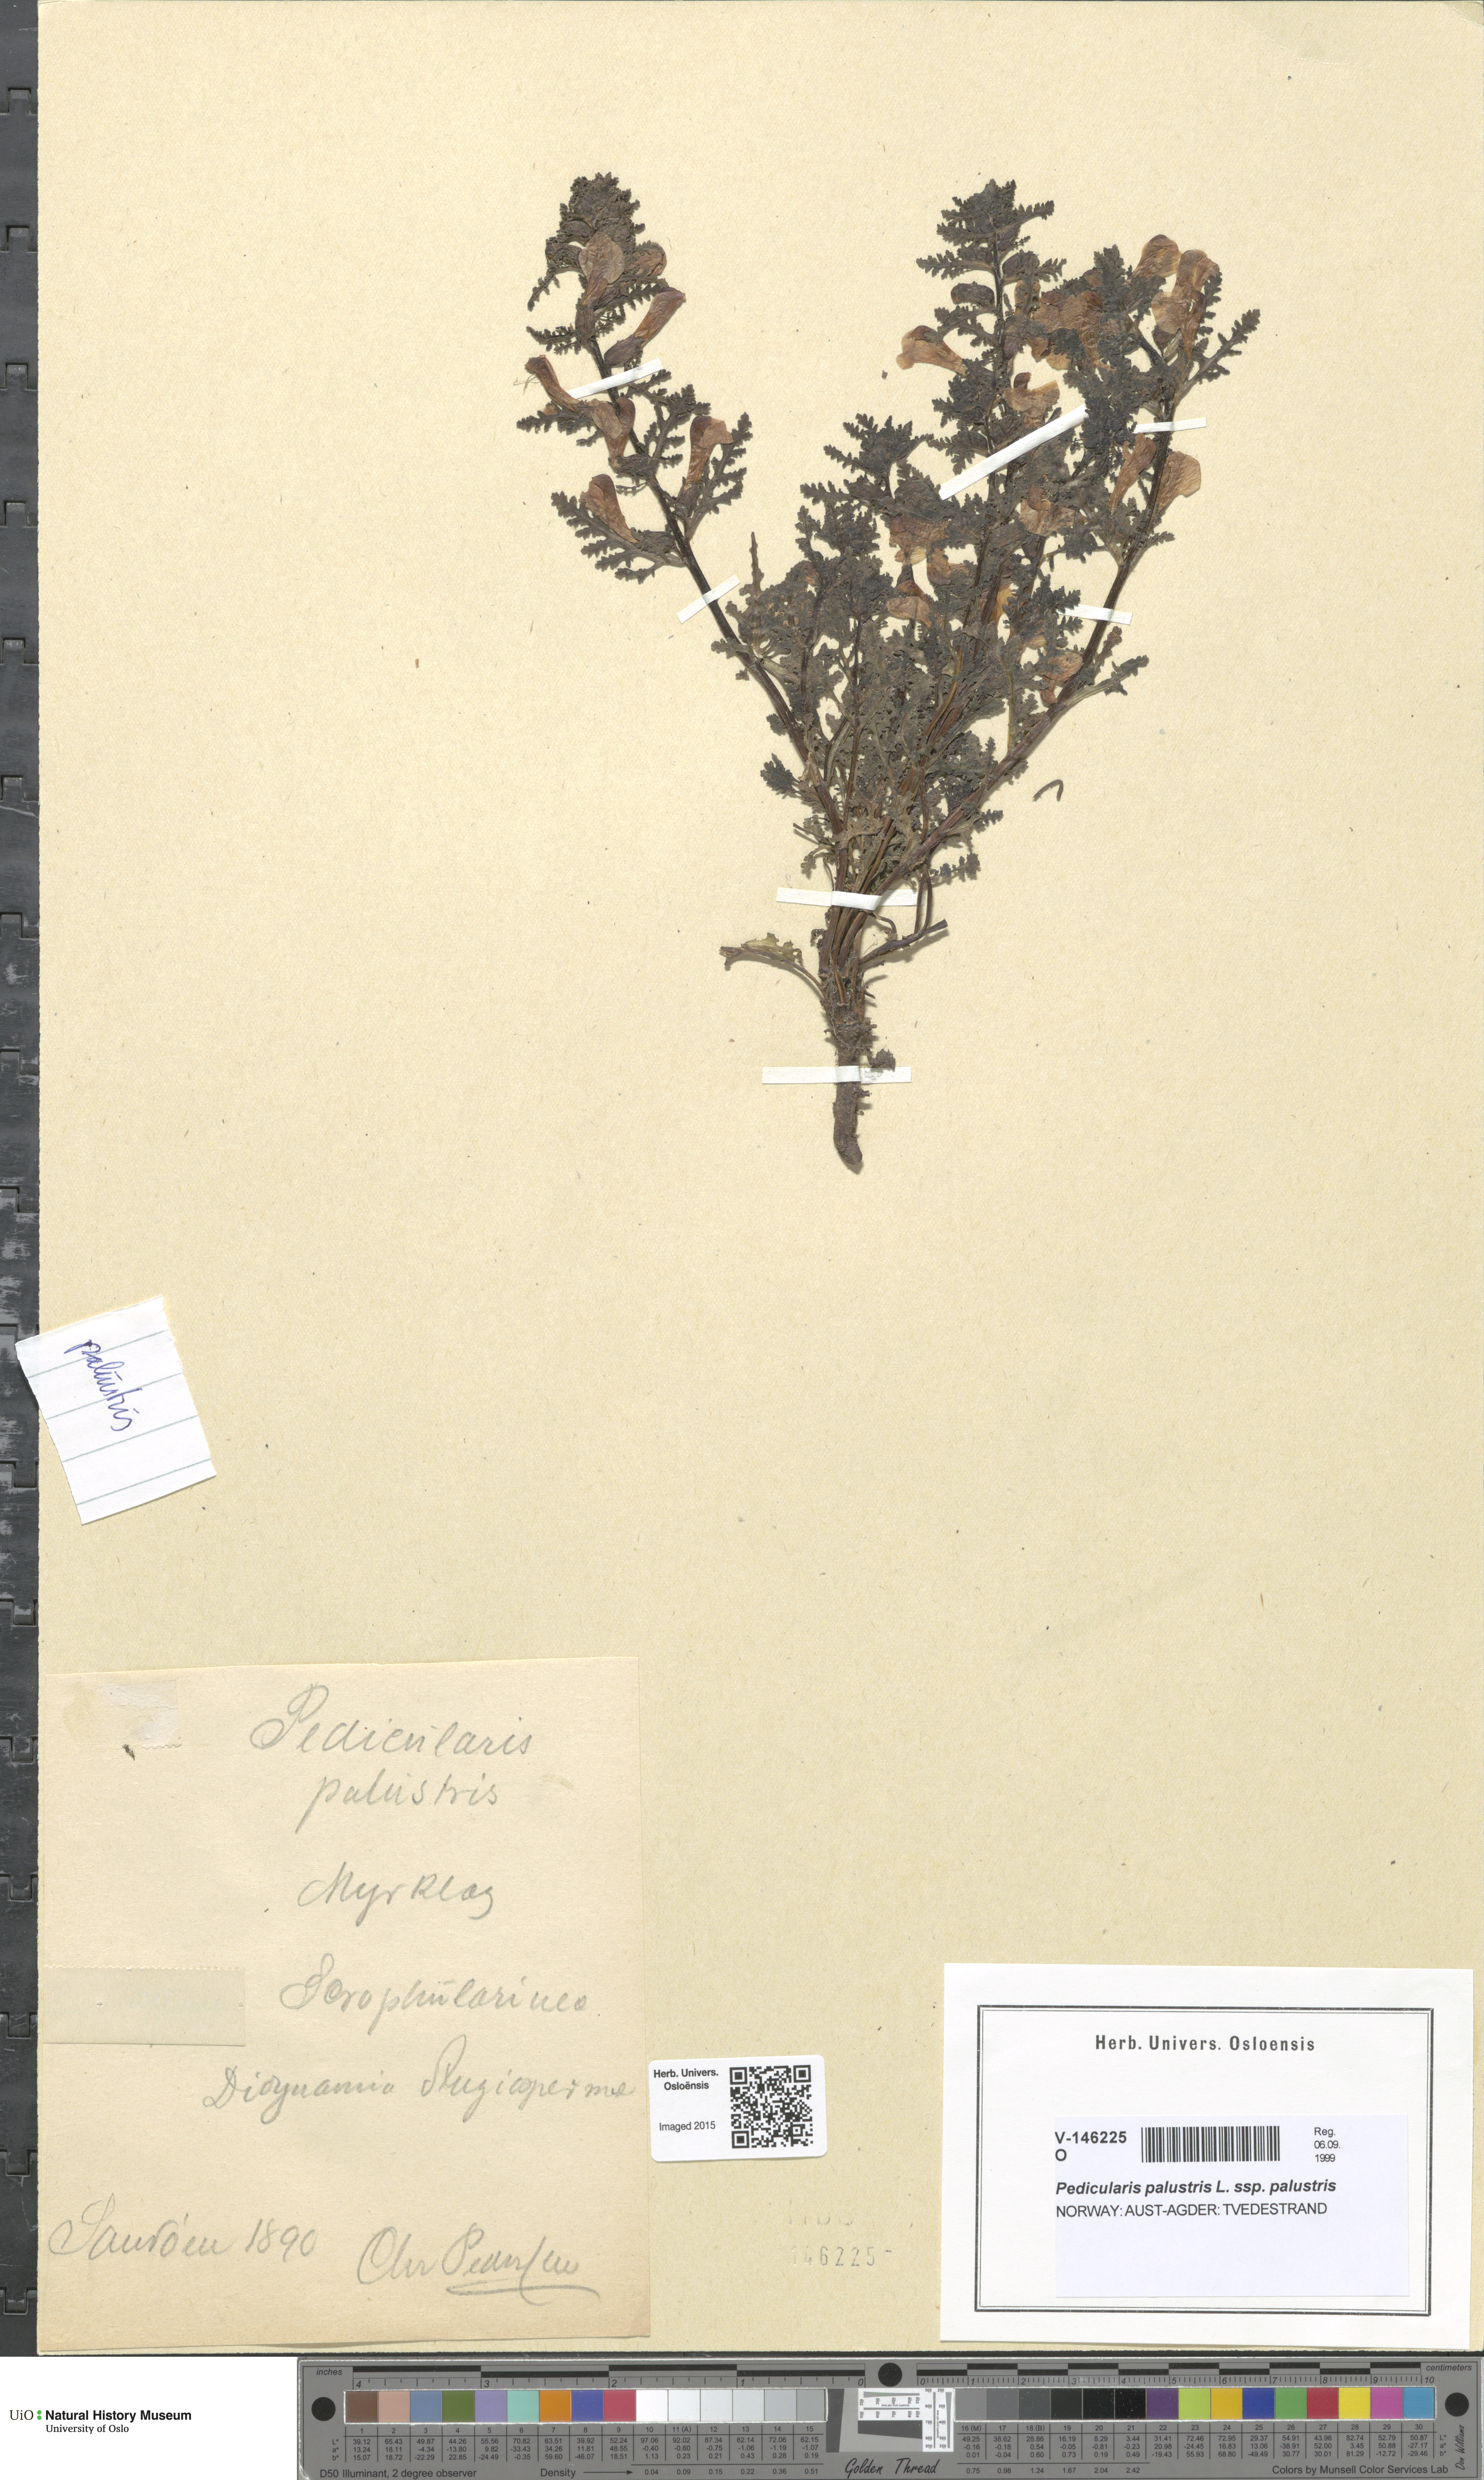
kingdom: Plantae
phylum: Tracheophyta
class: Magnoliopsida
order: Lamiales
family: Orobanchaceae
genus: Pedicularis
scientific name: Pedicularis palustris
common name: Marsh lousewort
